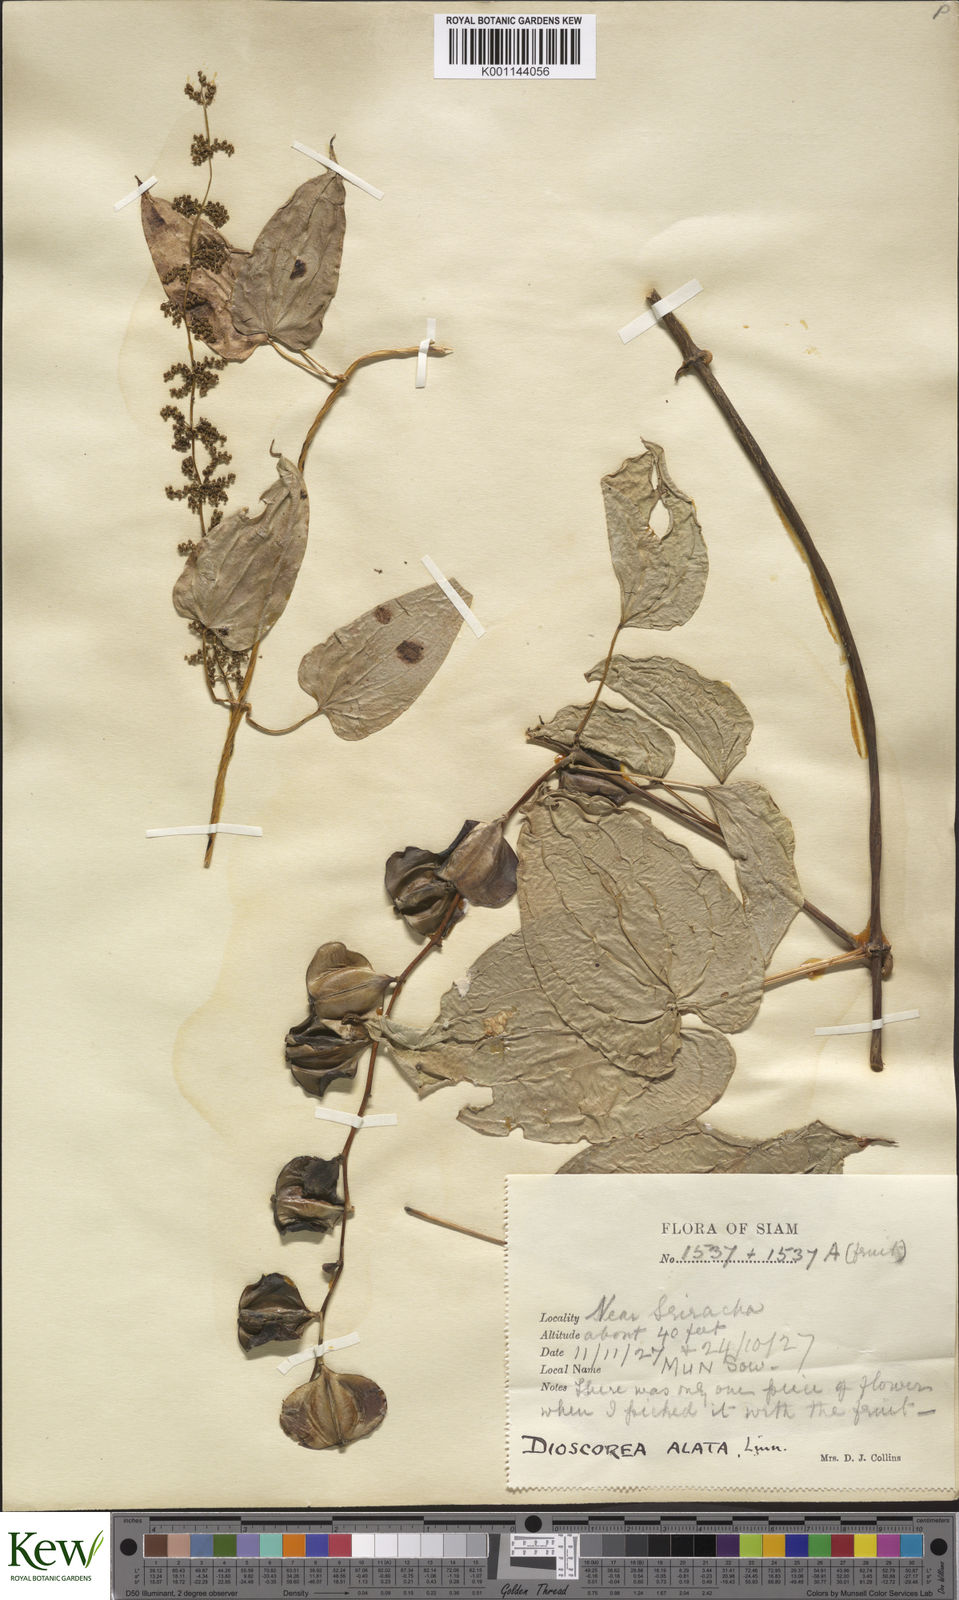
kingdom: Plantae
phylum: Tracheophyta
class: Liliopsida
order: Dioscoreales
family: Dioscoreaceae
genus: Dioscorea
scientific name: Dioscorea alata
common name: Water yam
